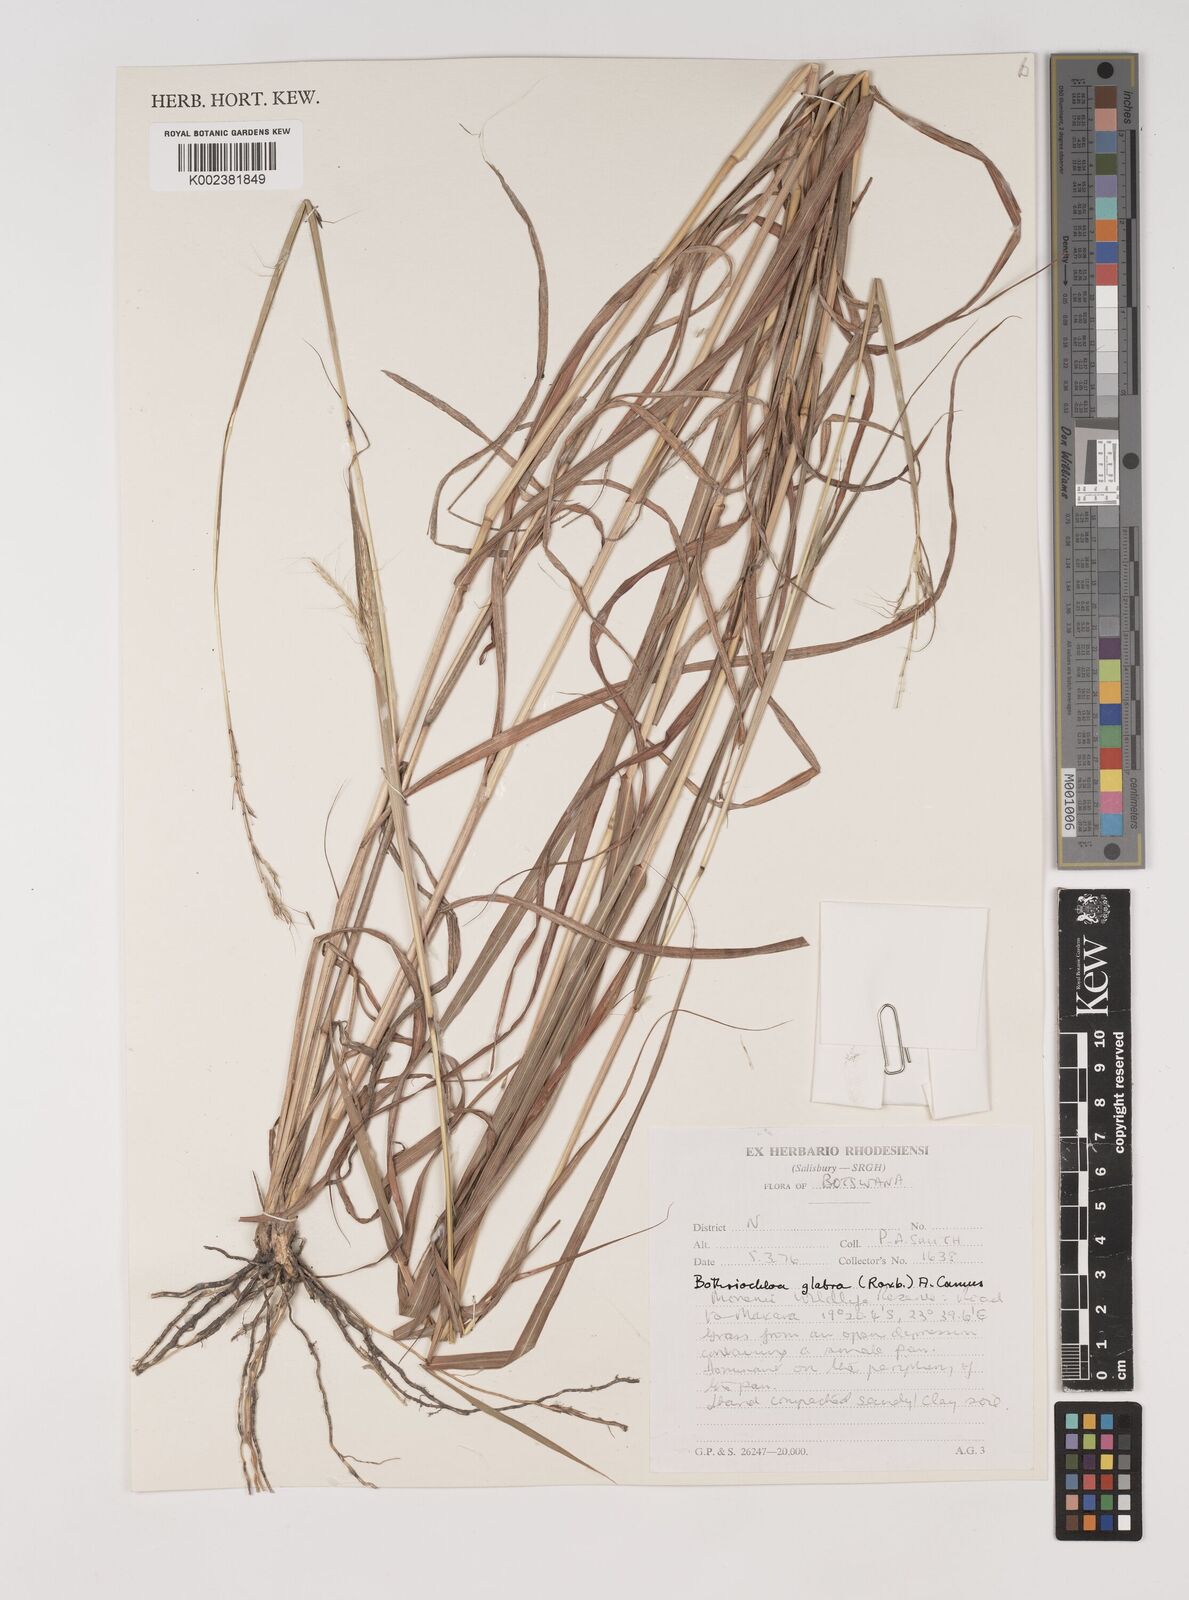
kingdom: Plantae
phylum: Tracheophyta
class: Liliopsida
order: Poales
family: Poaceae
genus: Bothriochloa
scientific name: Bothriochloa bladhii
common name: Caucasian bluestem
